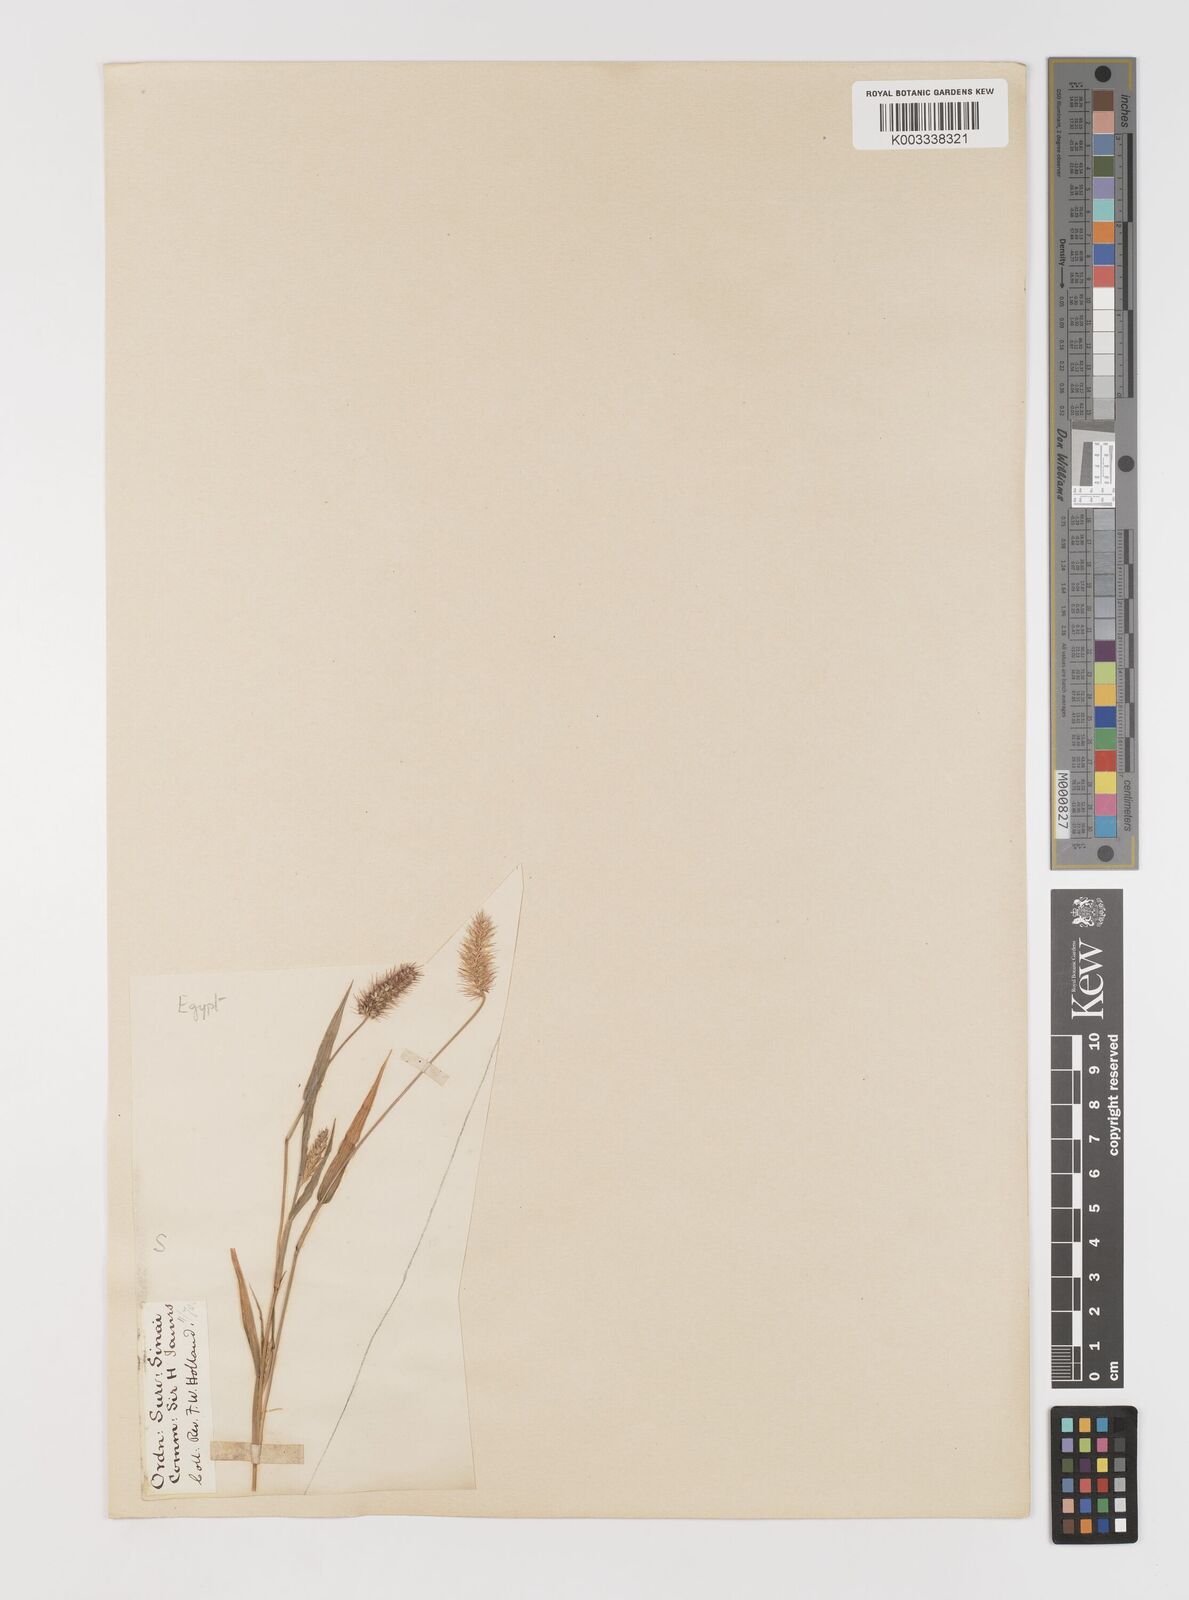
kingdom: Plantae
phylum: Tracheophyta
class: Liliopsida
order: Poales
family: Poaceae
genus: Setaria
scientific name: Setaria verticillata
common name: Hooked bristlegrass
